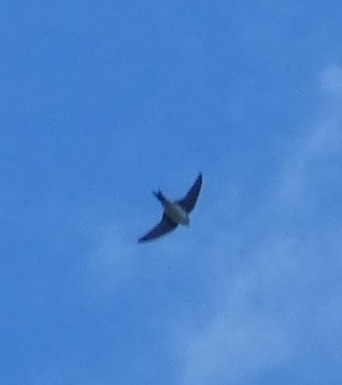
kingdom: Animalia
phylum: Chordata
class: Aves
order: Passeriformes
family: Hirundinidae
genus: Delichon
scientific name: Delichon urbicum
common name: Bysvale
